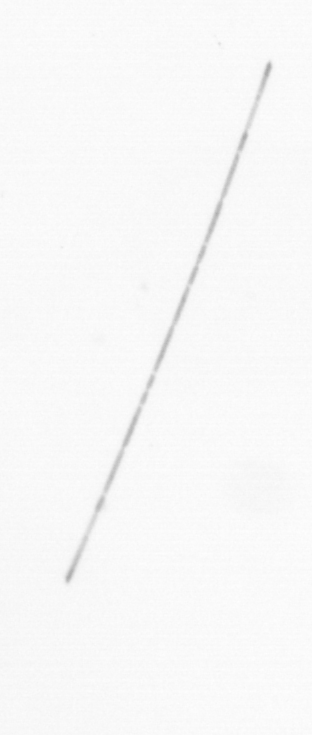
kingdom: Chromista
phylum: Ochrophyta
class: Bacillariophyceae
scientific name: Bacillariophyceae
